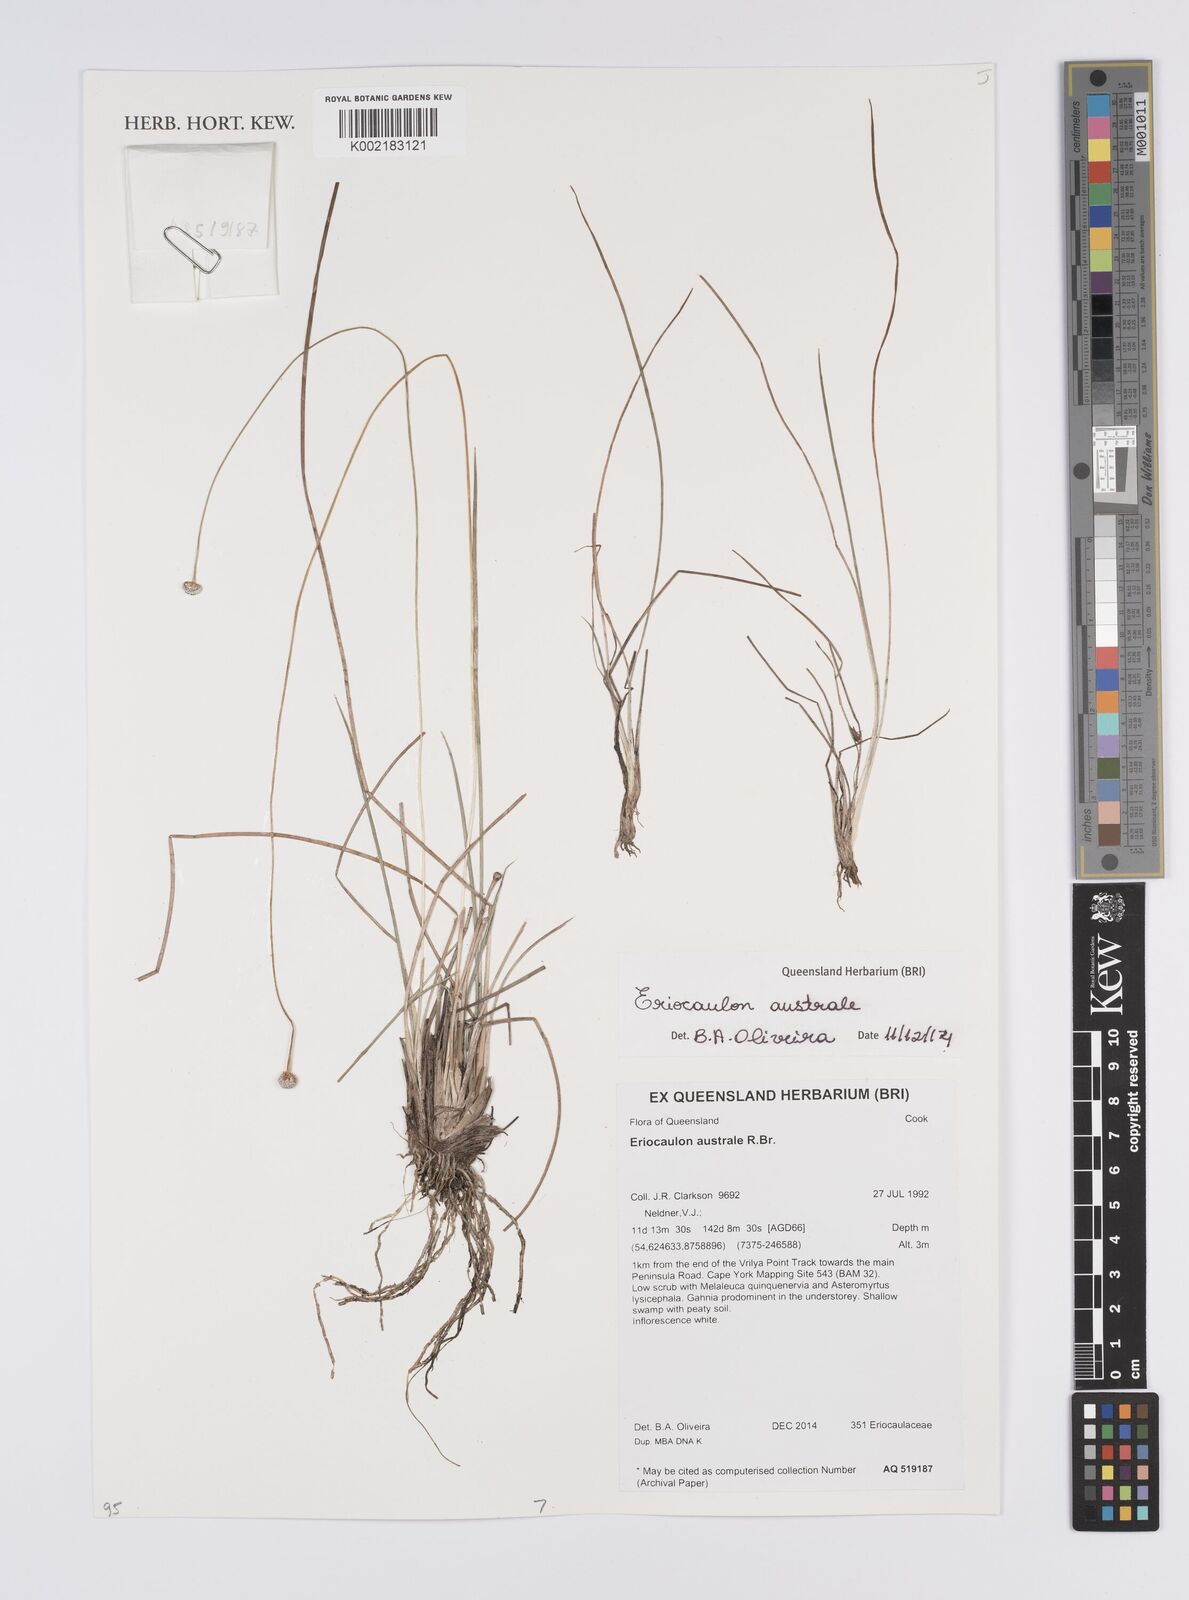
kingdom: Plantae
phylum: Tracheophyta
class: Liliopsida
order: Poales
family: Eriocaulaceae
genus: Eriocaulon
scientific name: Eriocaulon australe
